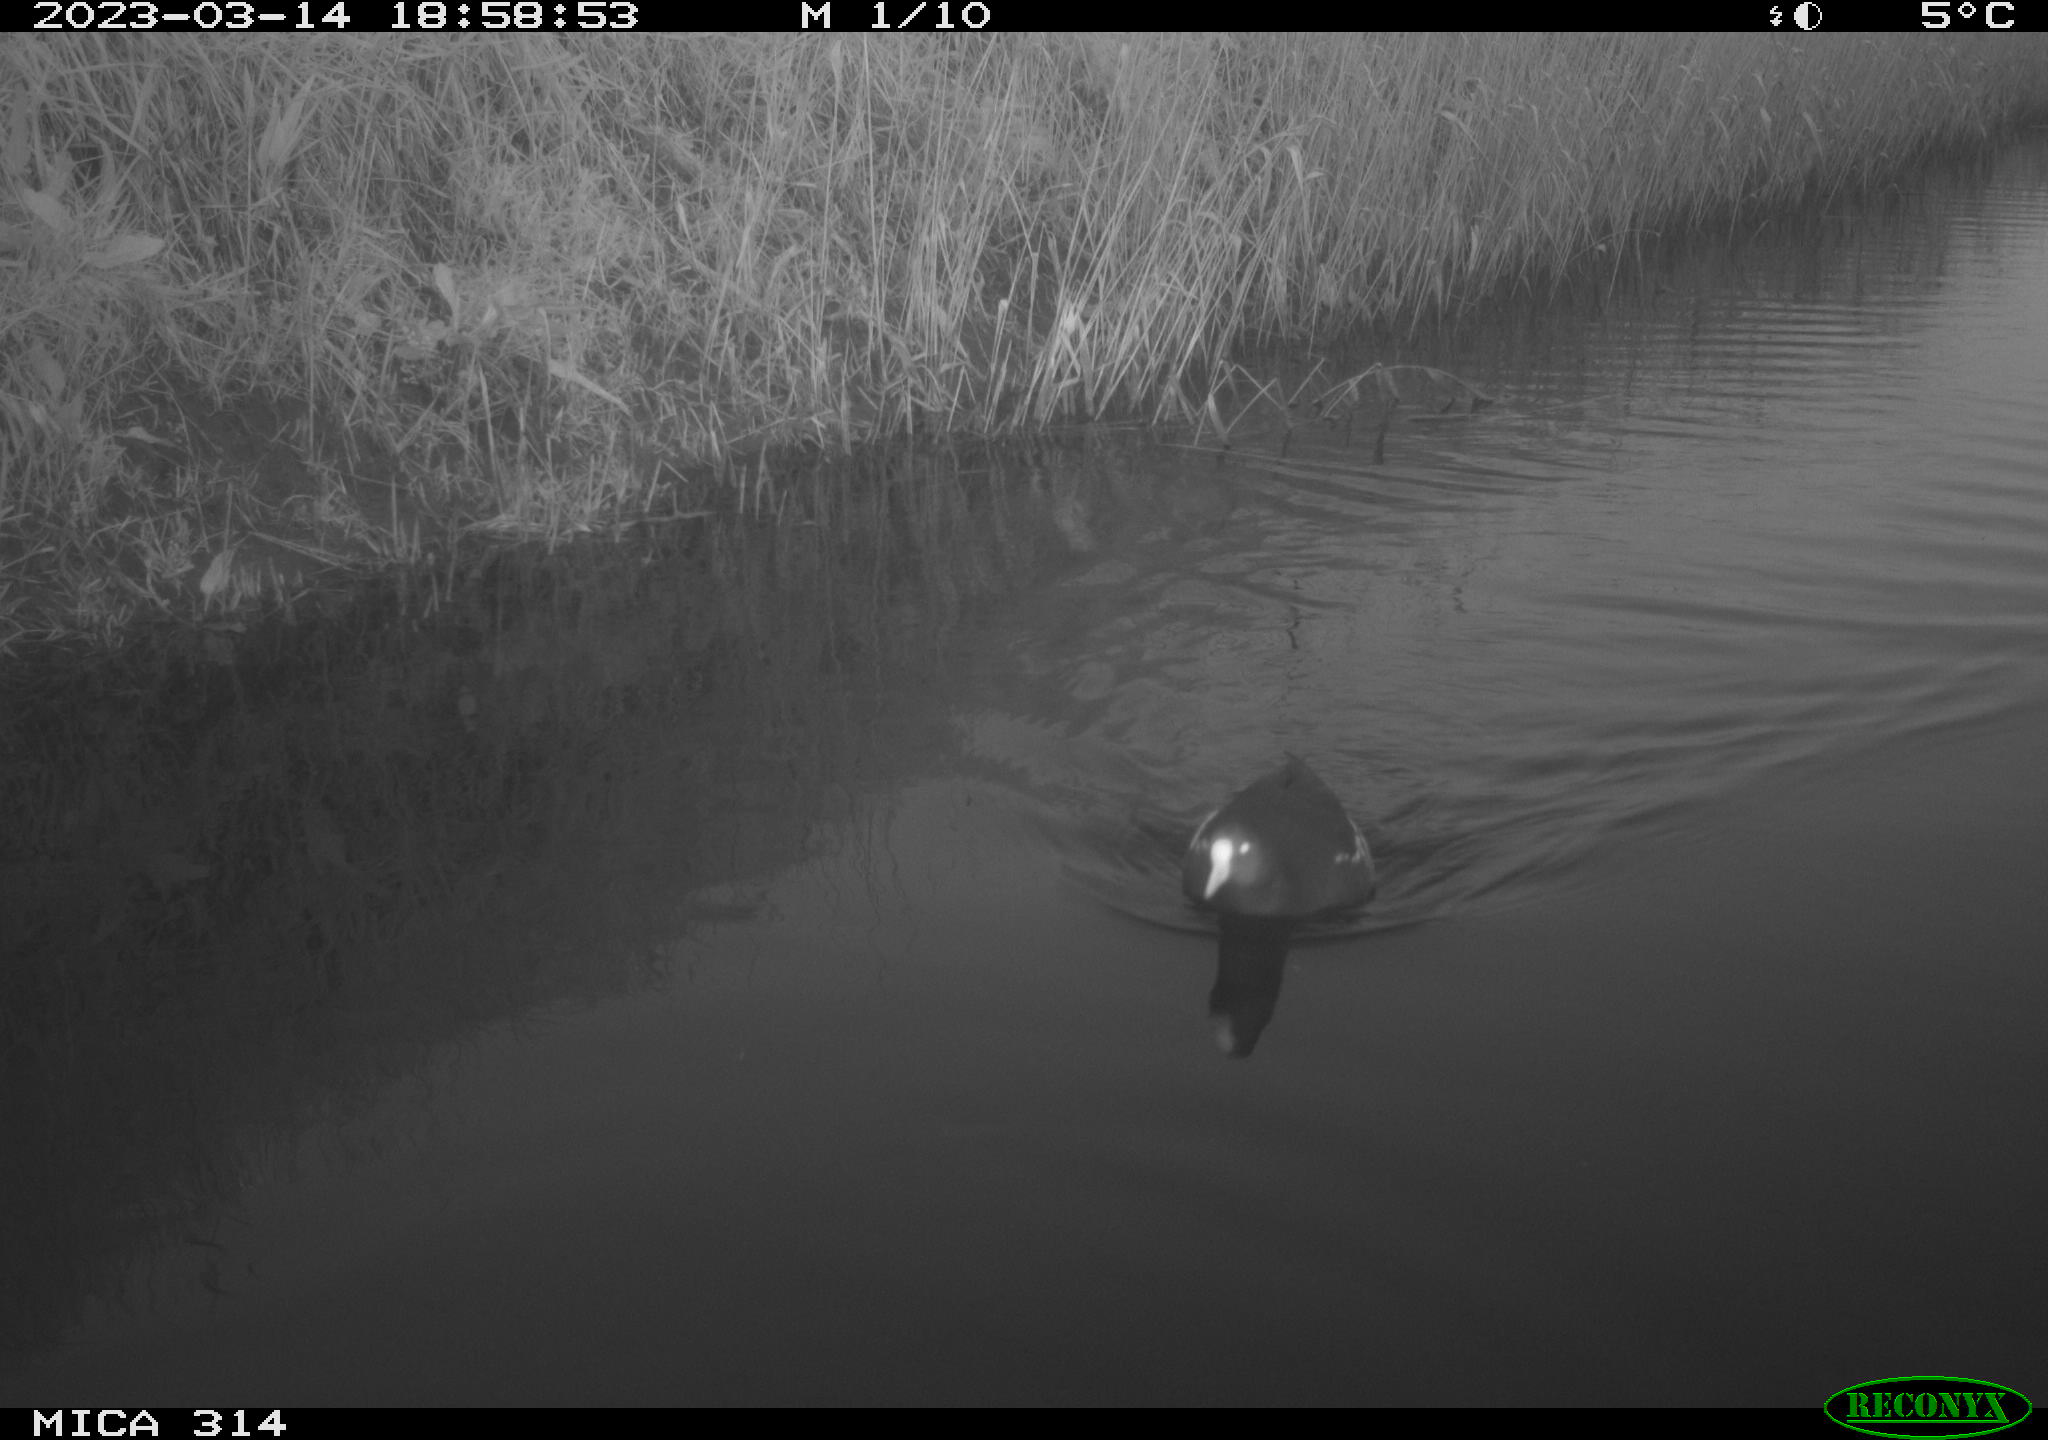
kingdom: Animalia
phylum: Chordata
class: Aves
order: Gruiformes
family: Rallidae
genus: Gallinula
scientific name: Gallinula chloropus
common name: Common moorhen
